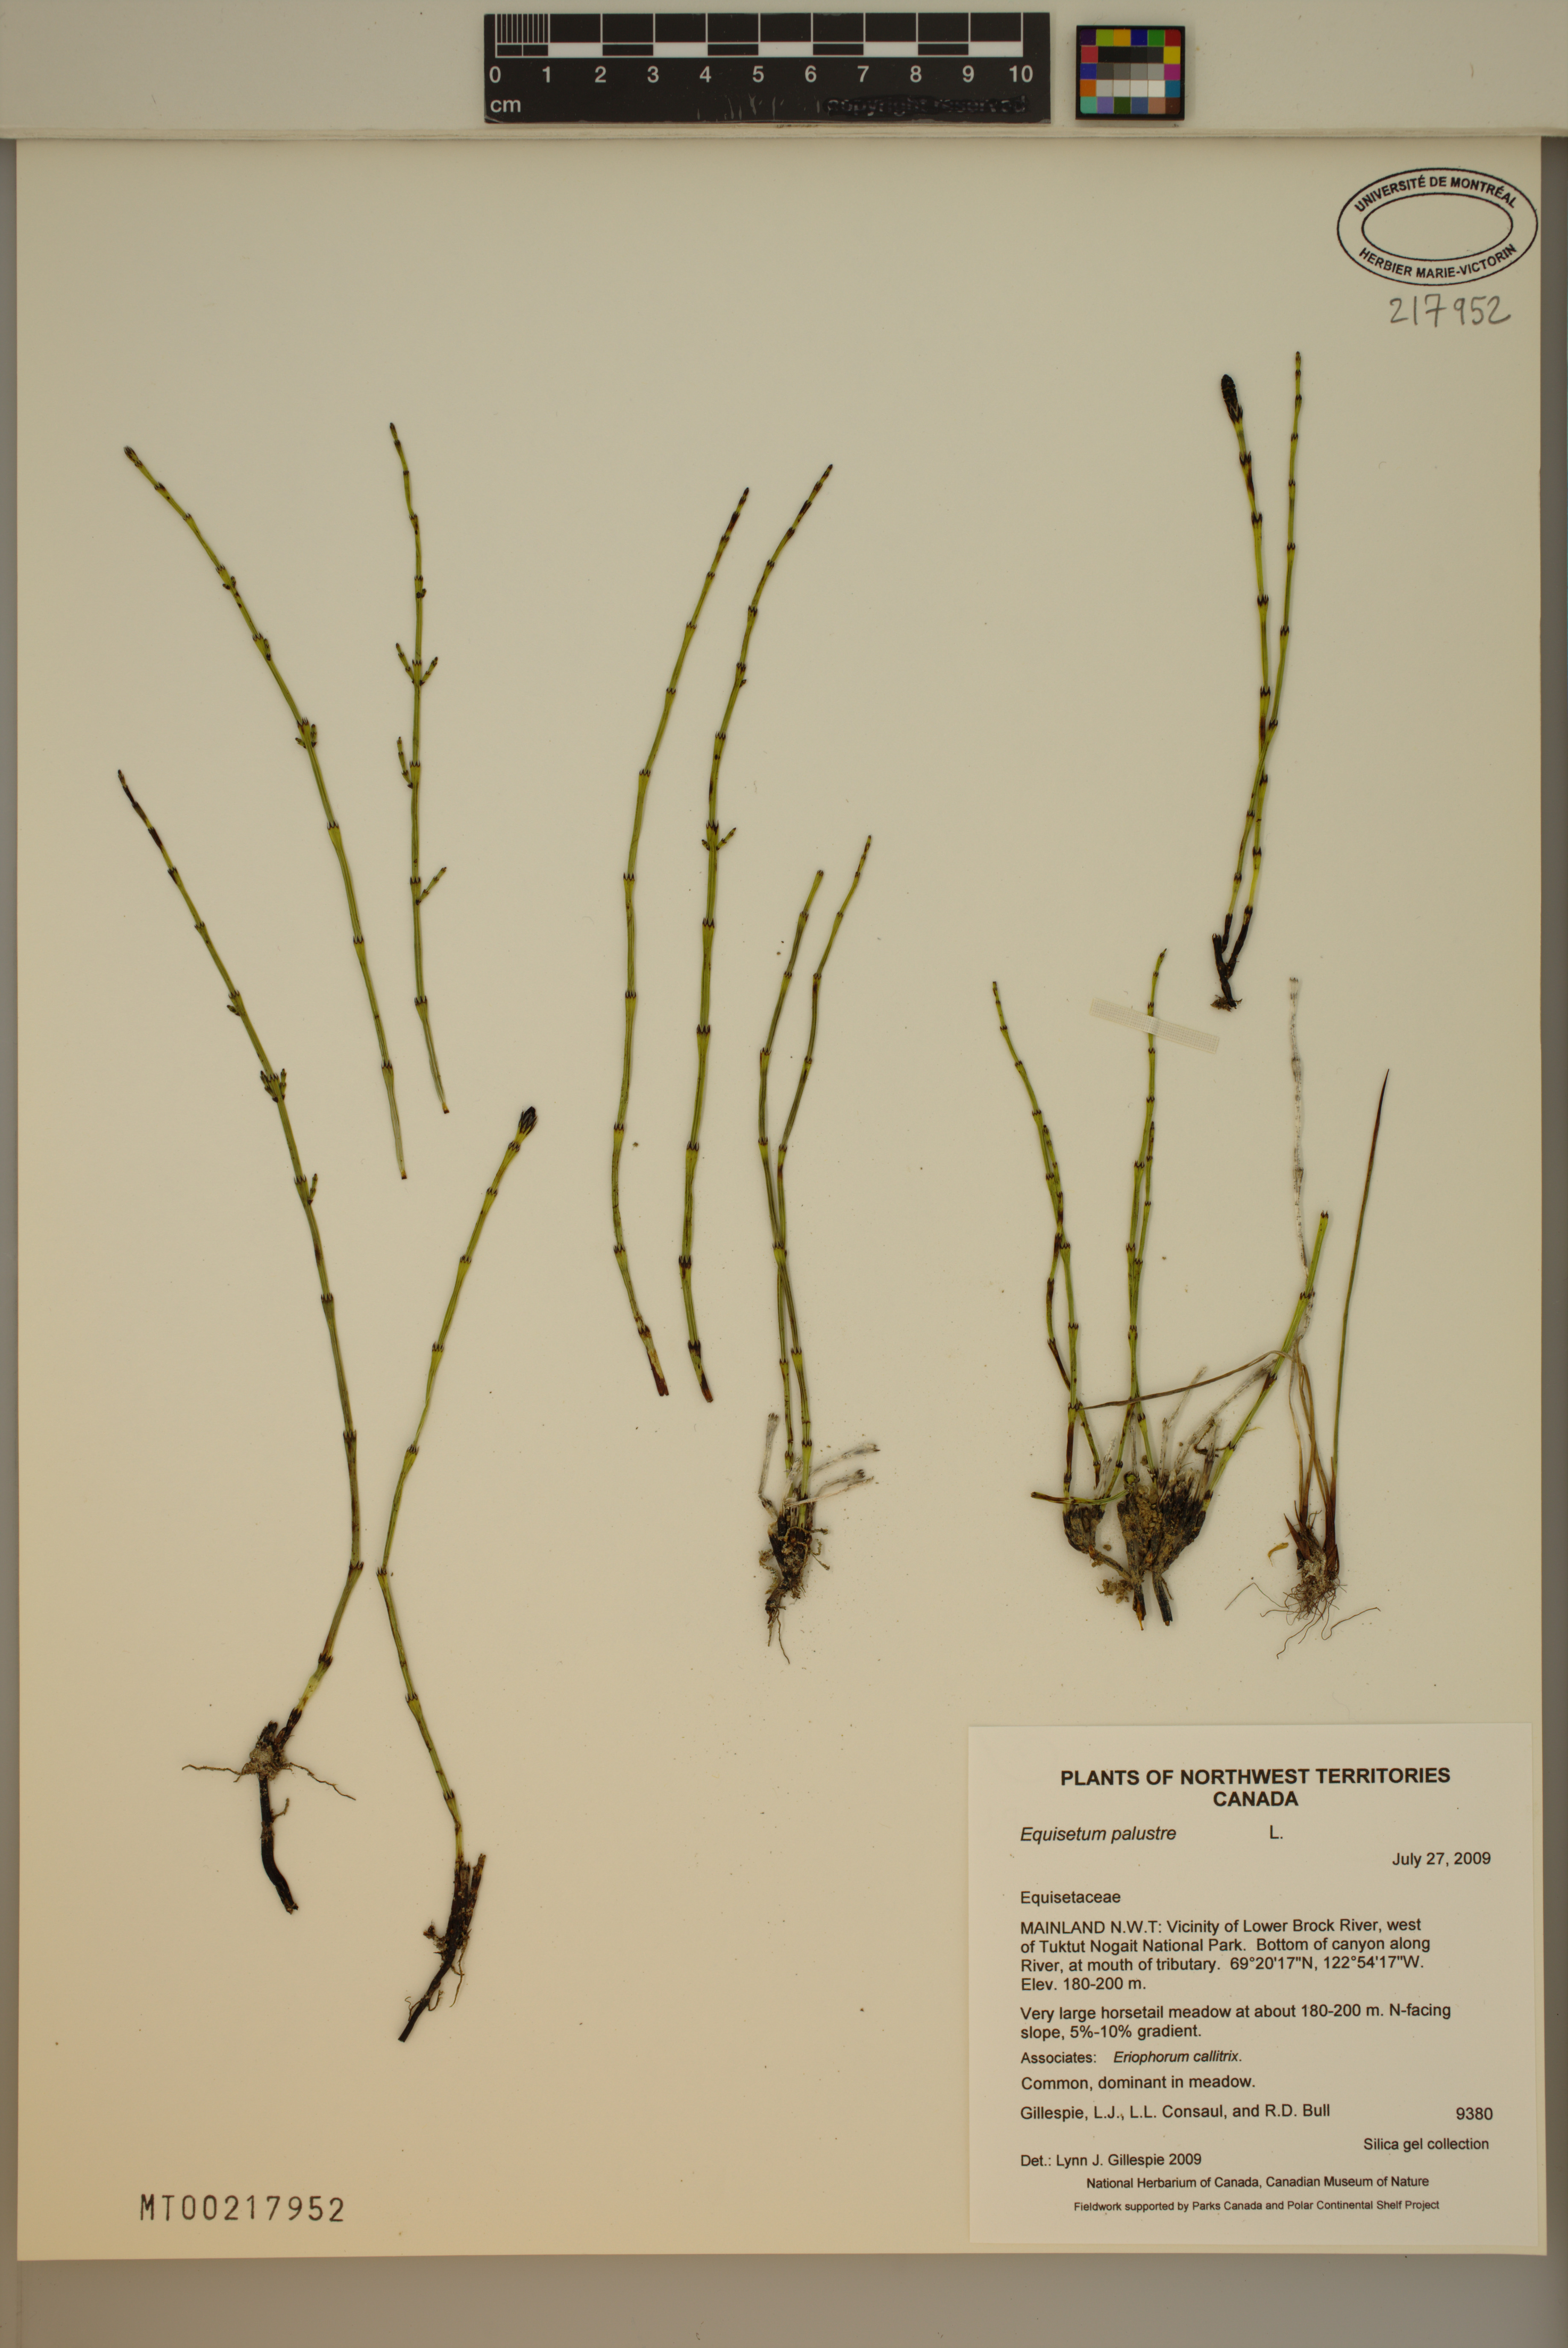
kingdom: Plantae
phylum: Tracheophyta
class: Polypodiopsida
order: Equisetales
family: Equisetaceae
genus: Equisetum
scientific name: Equisetum palustre
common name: Marsh horsetail
